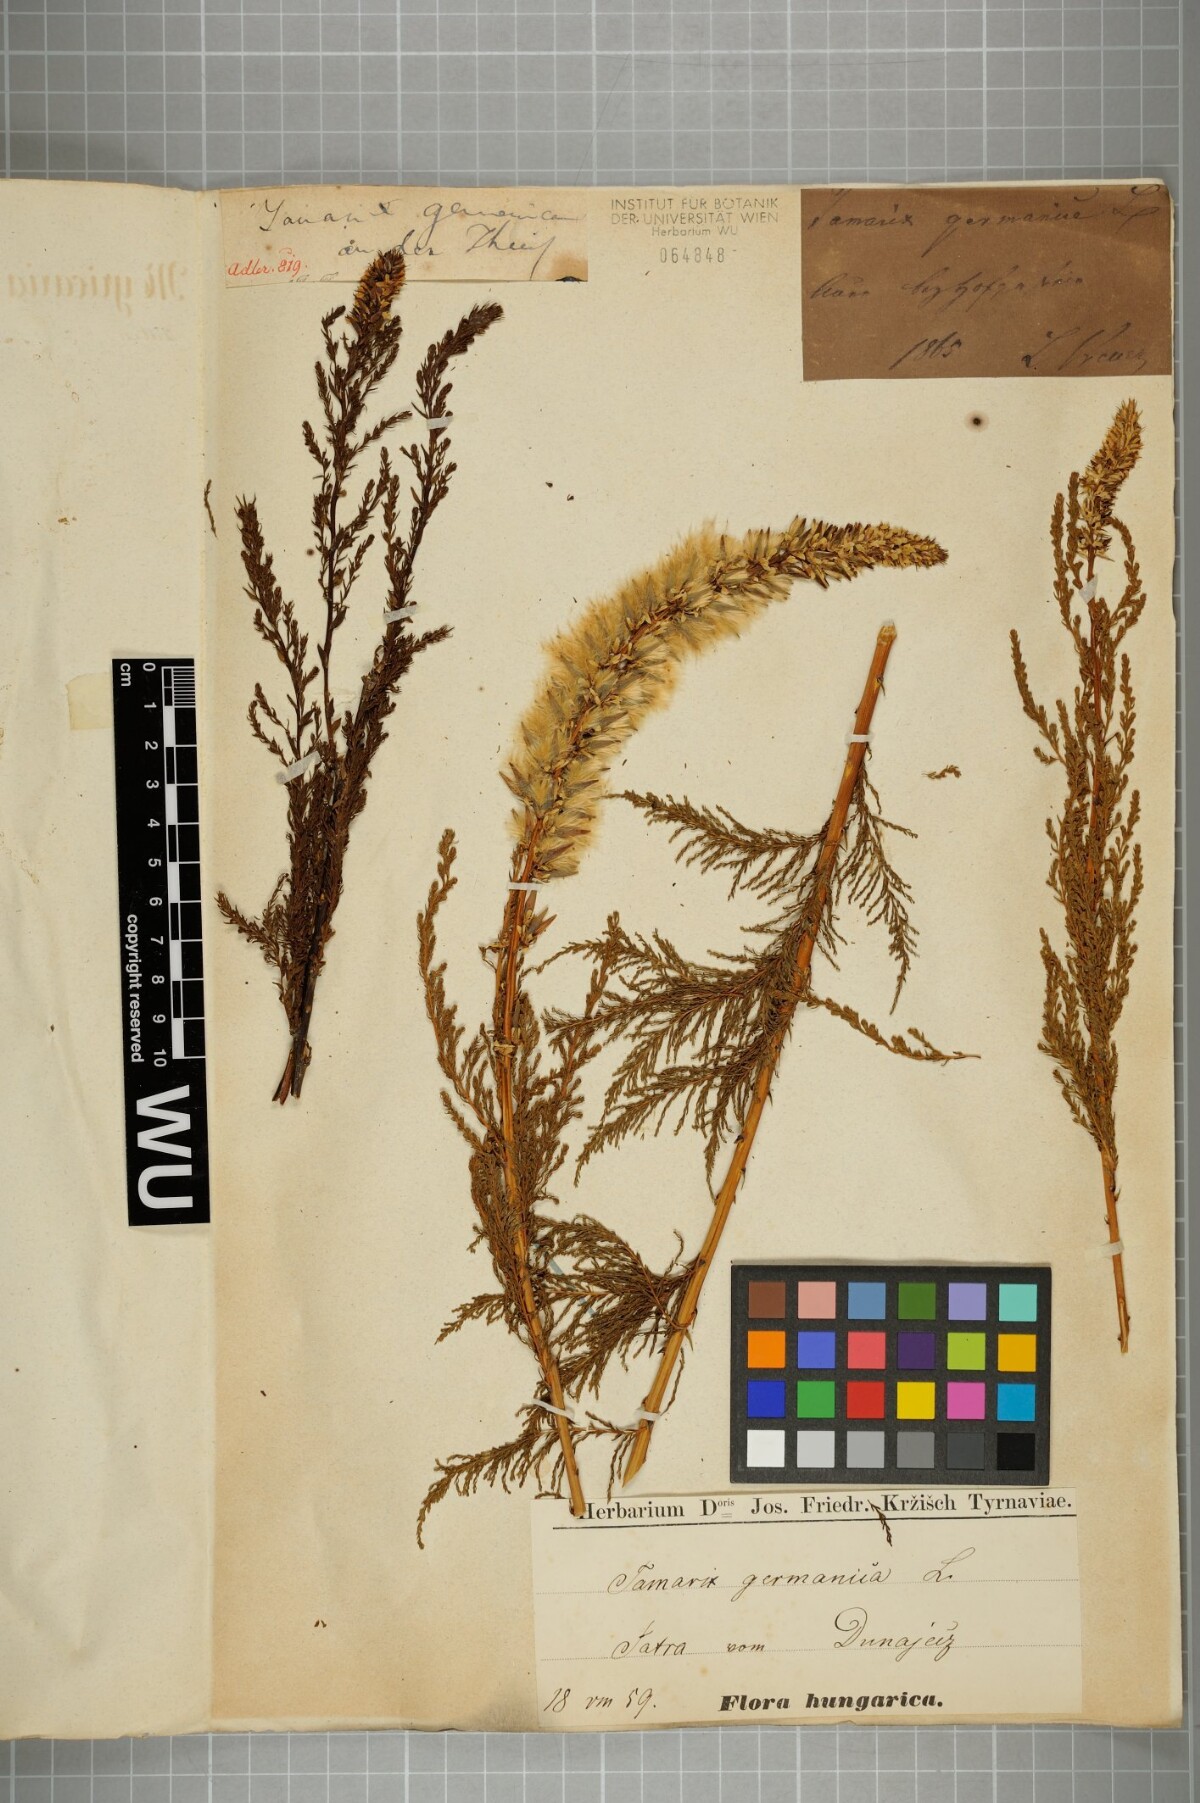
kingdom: Plantae
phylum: Tracheophyta
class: Magnoliopsida
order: Caryophyllales
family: Tamaricaceae
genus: Myricaria
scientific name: Myricaria germanica
